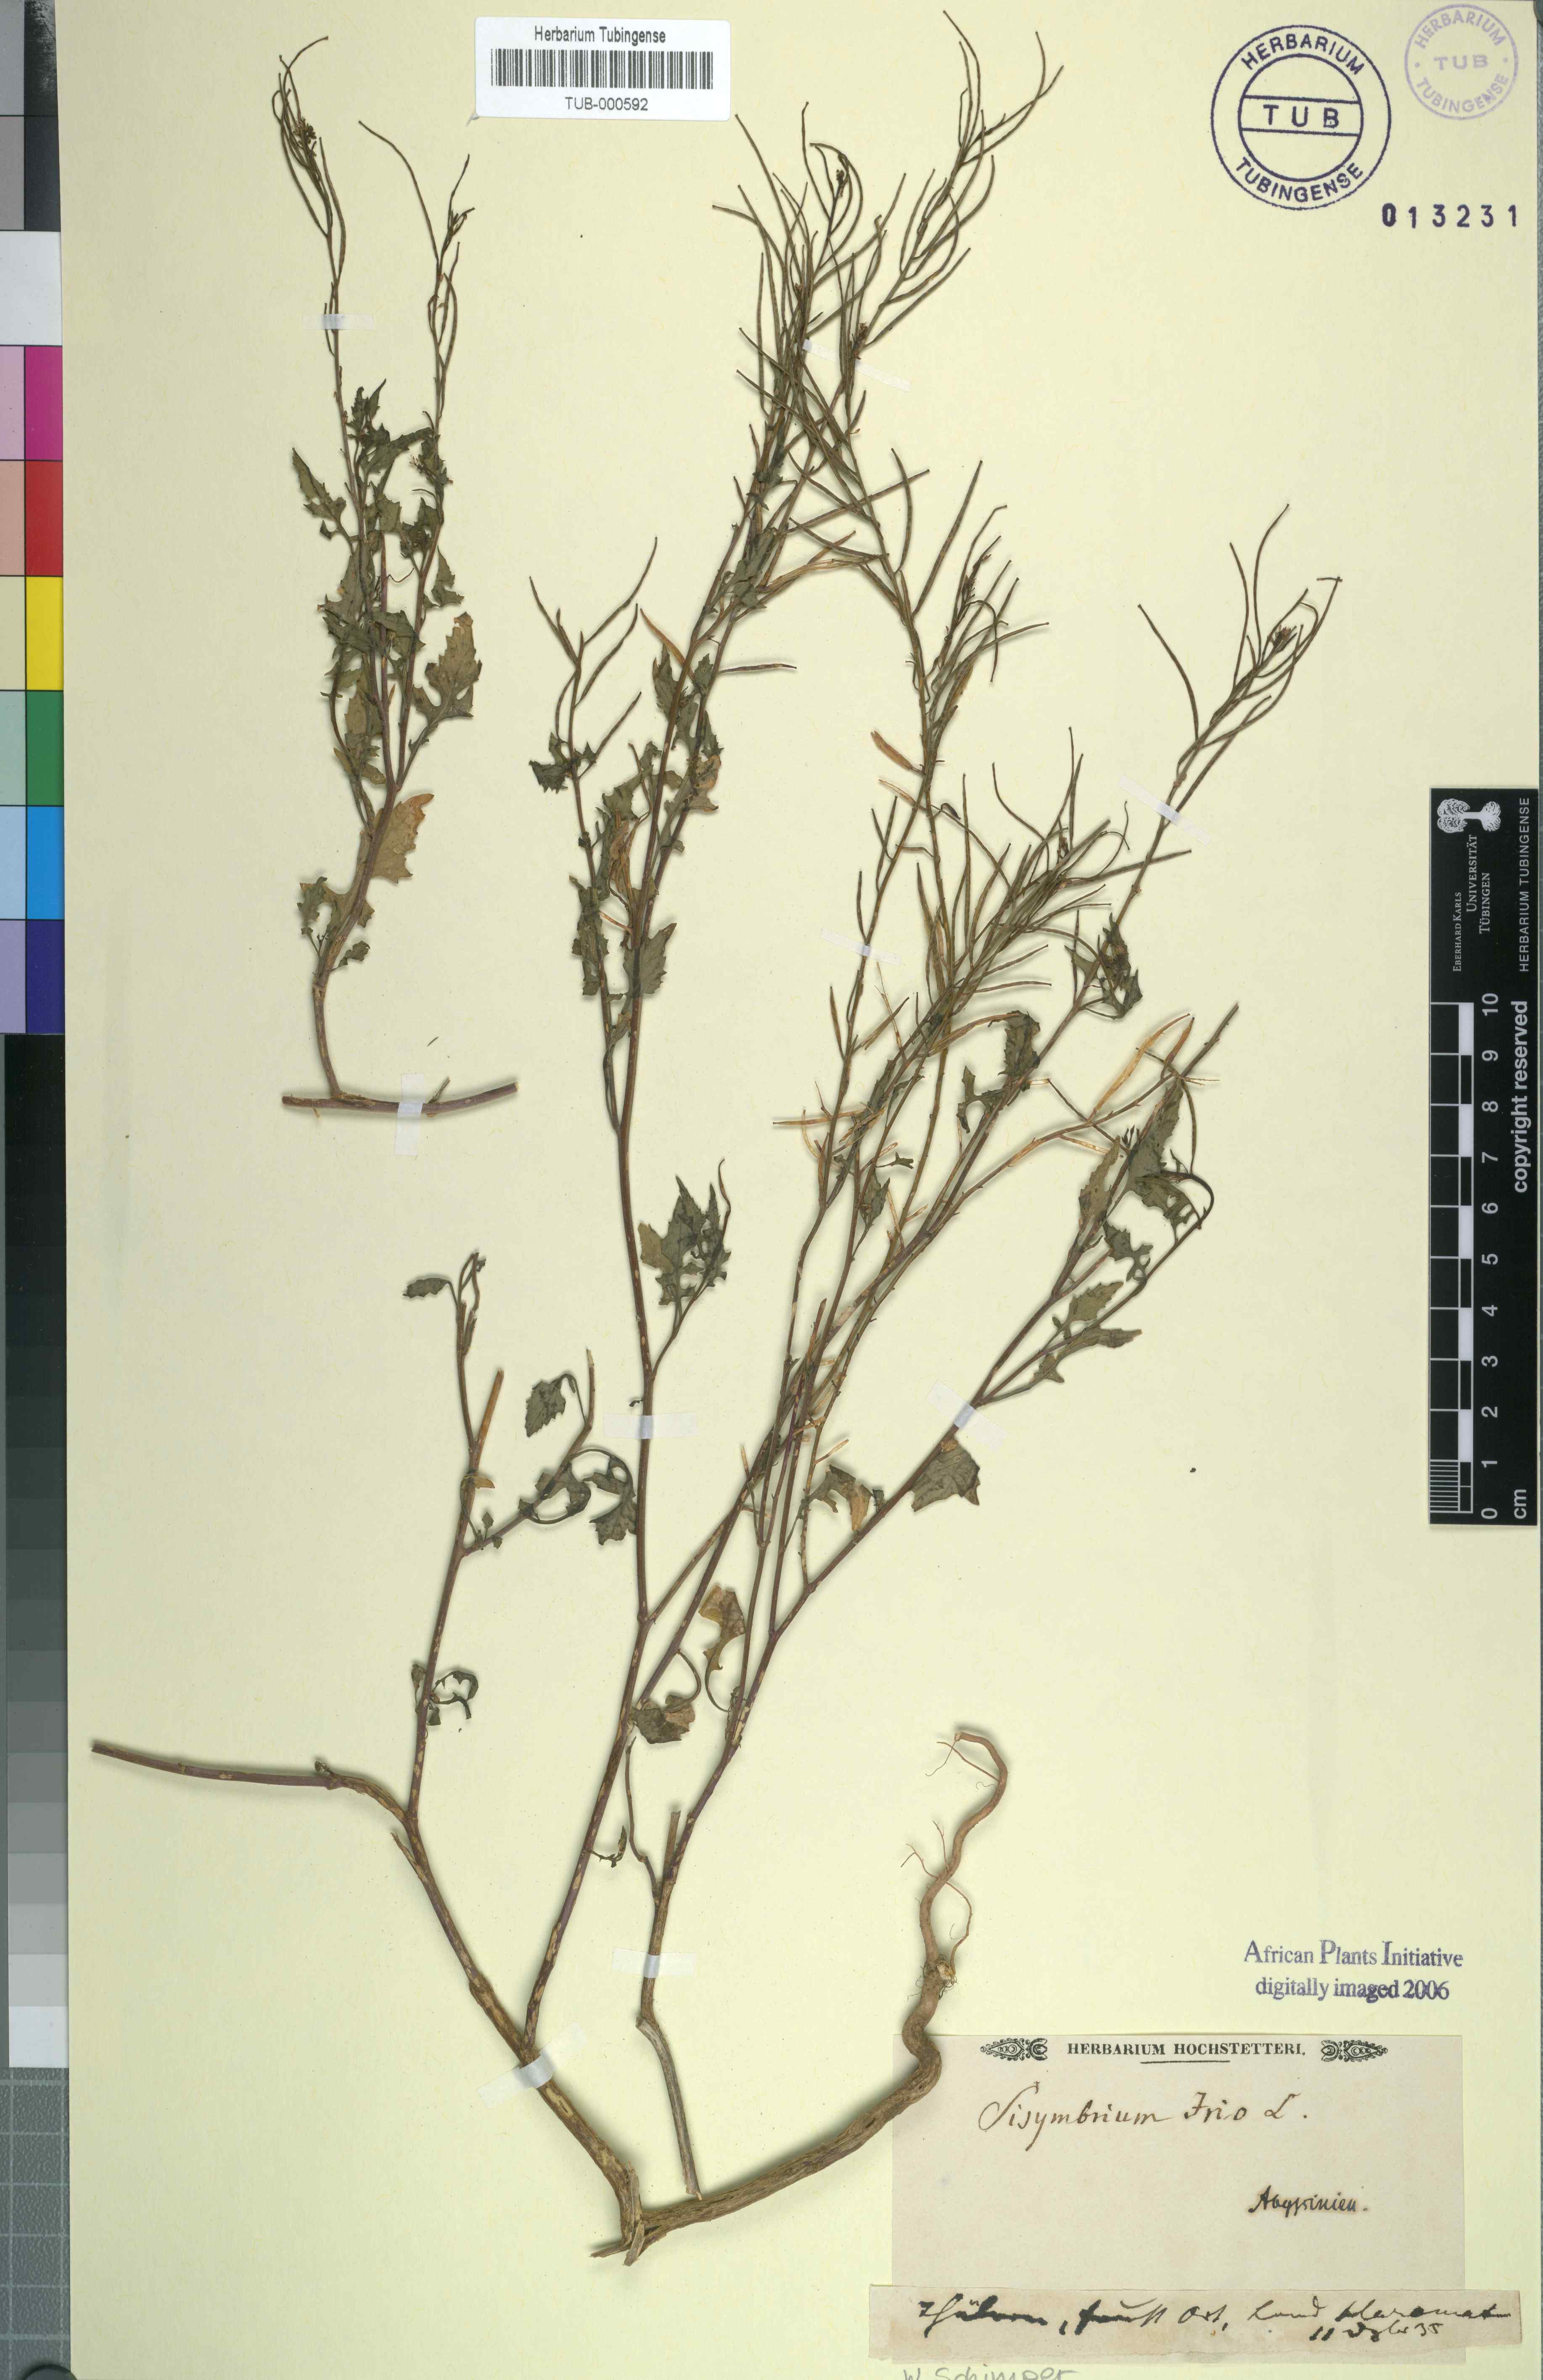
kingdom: Plantae
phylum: Tracheophyta
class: Magnoliopsida
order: Brassicales
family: Brassicaceae
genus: Sisymbrium
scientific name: Sisymbrium irio
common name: London rocket
